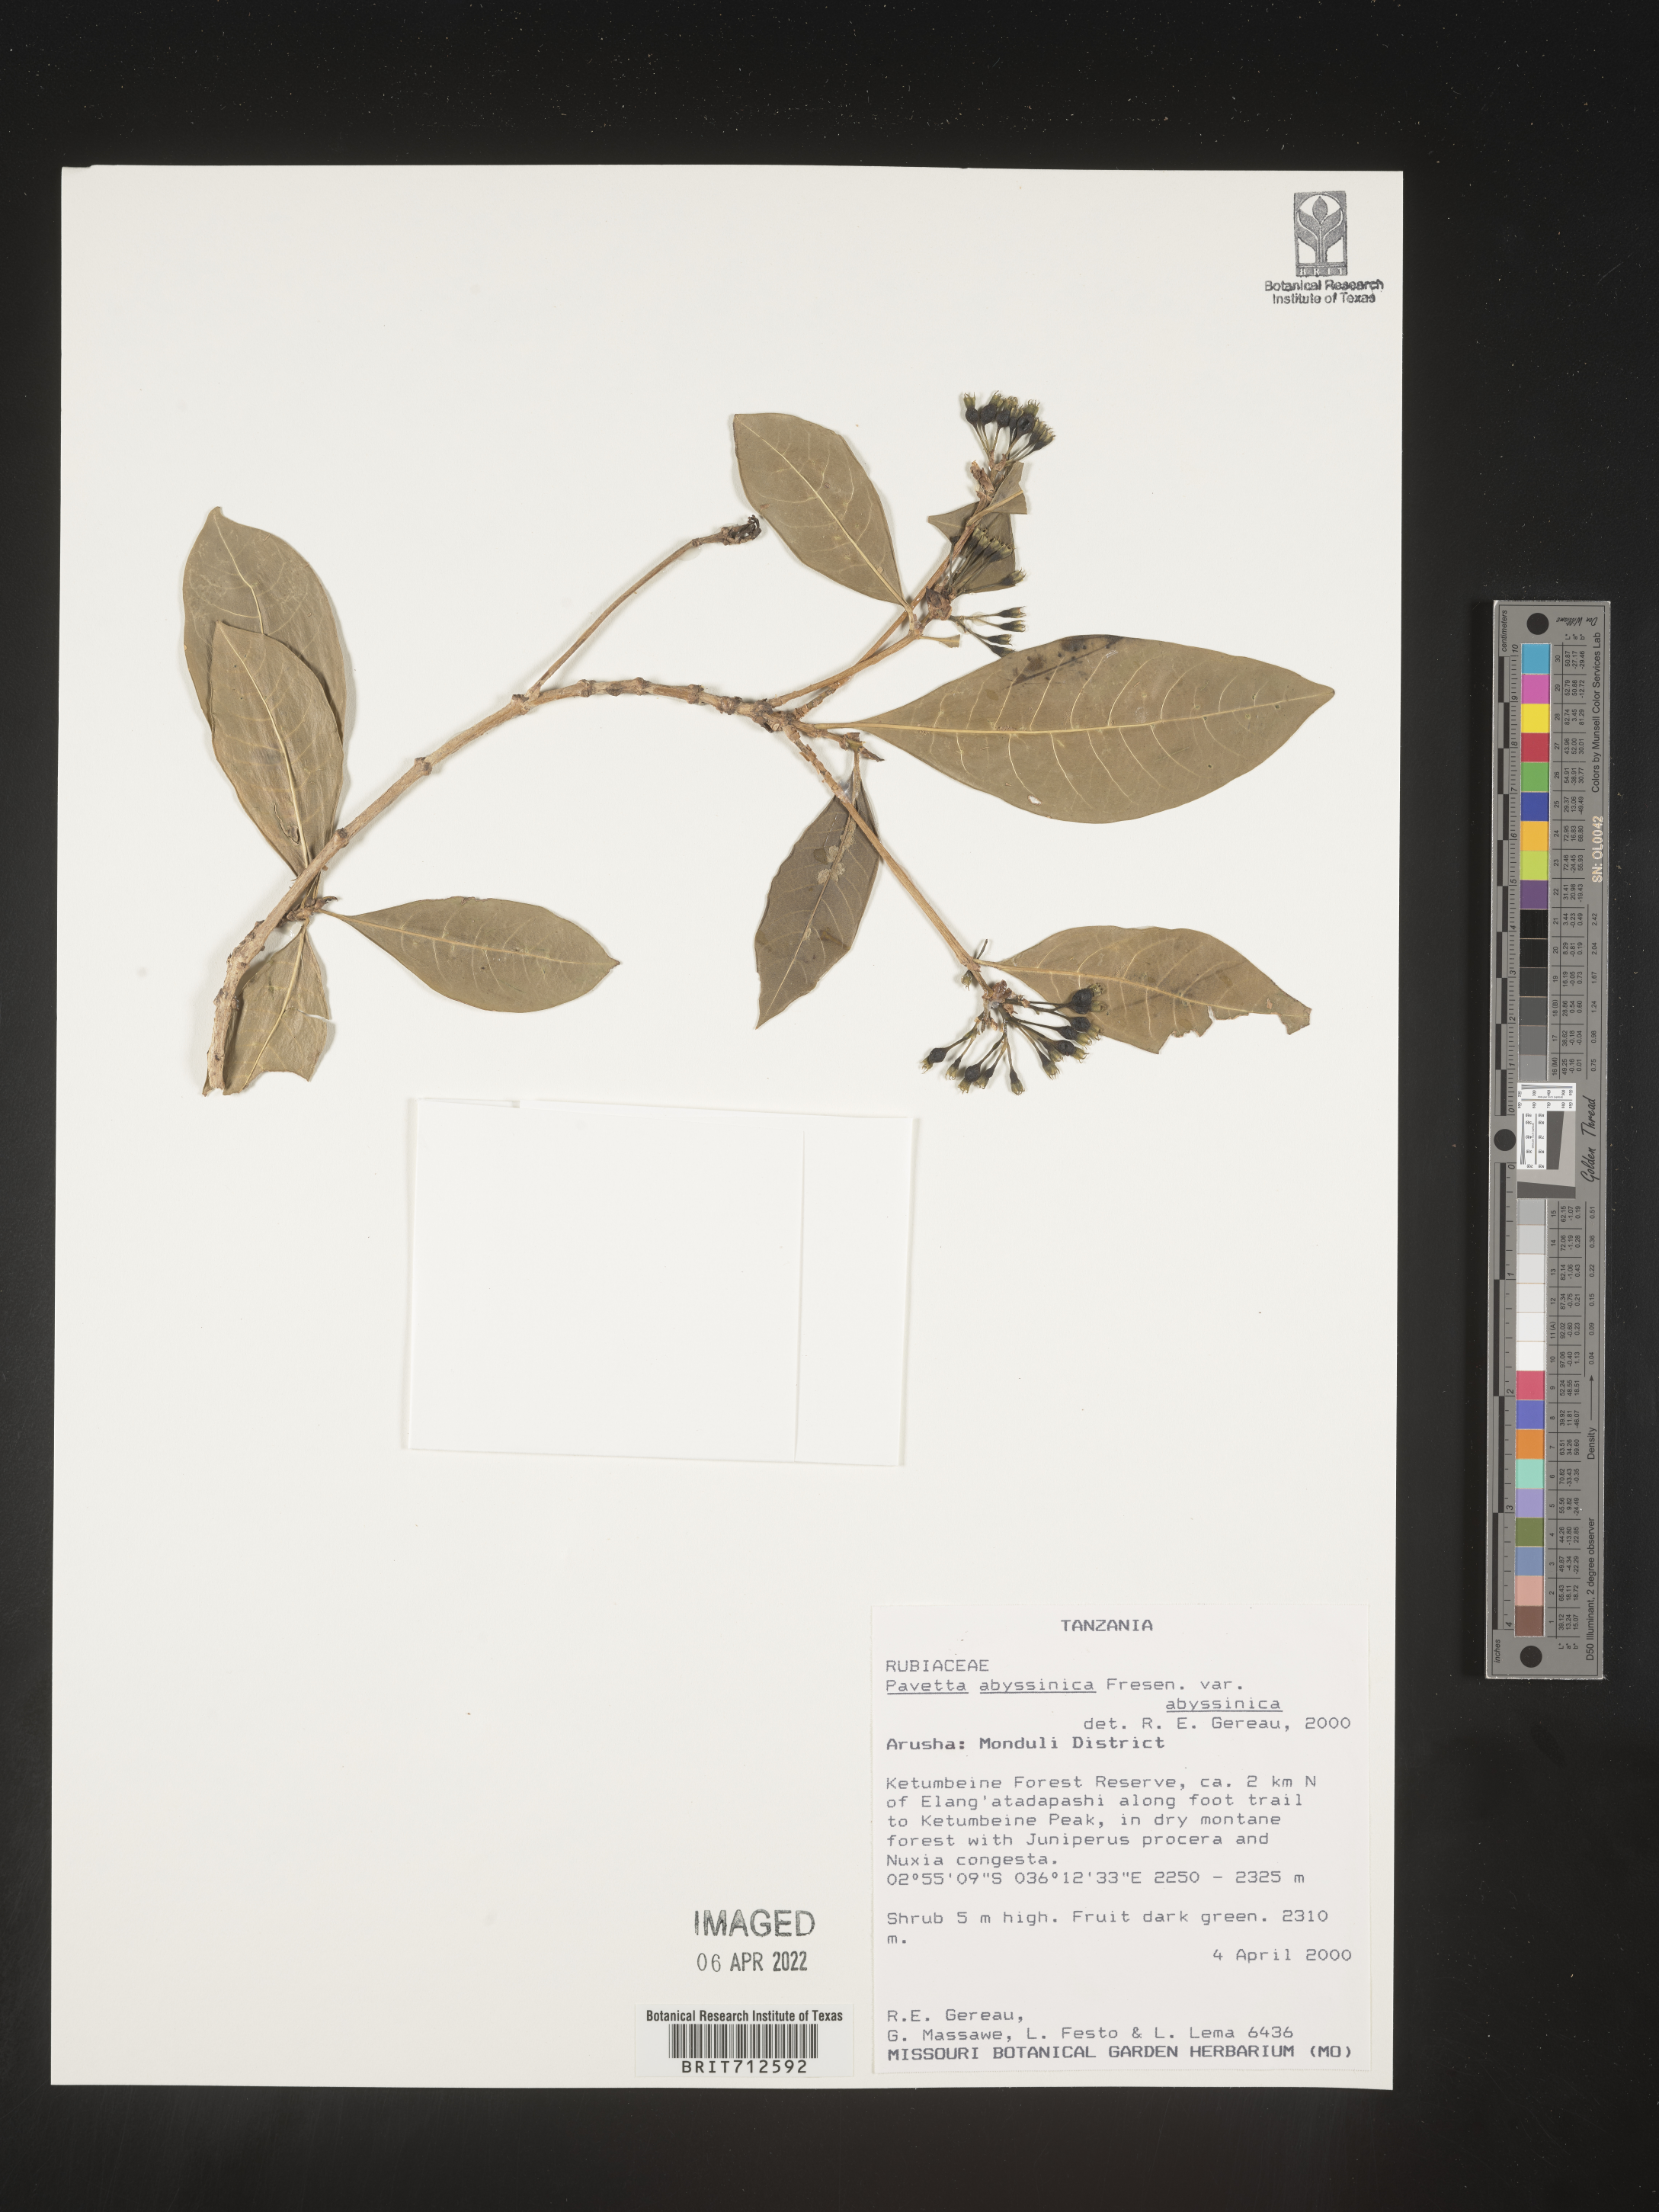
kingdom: Plantae
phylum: Tracheophyta
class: Magnoliopsida
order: Gentianales
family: Rubiaceae
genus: Pavetta
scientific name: Pavetta
